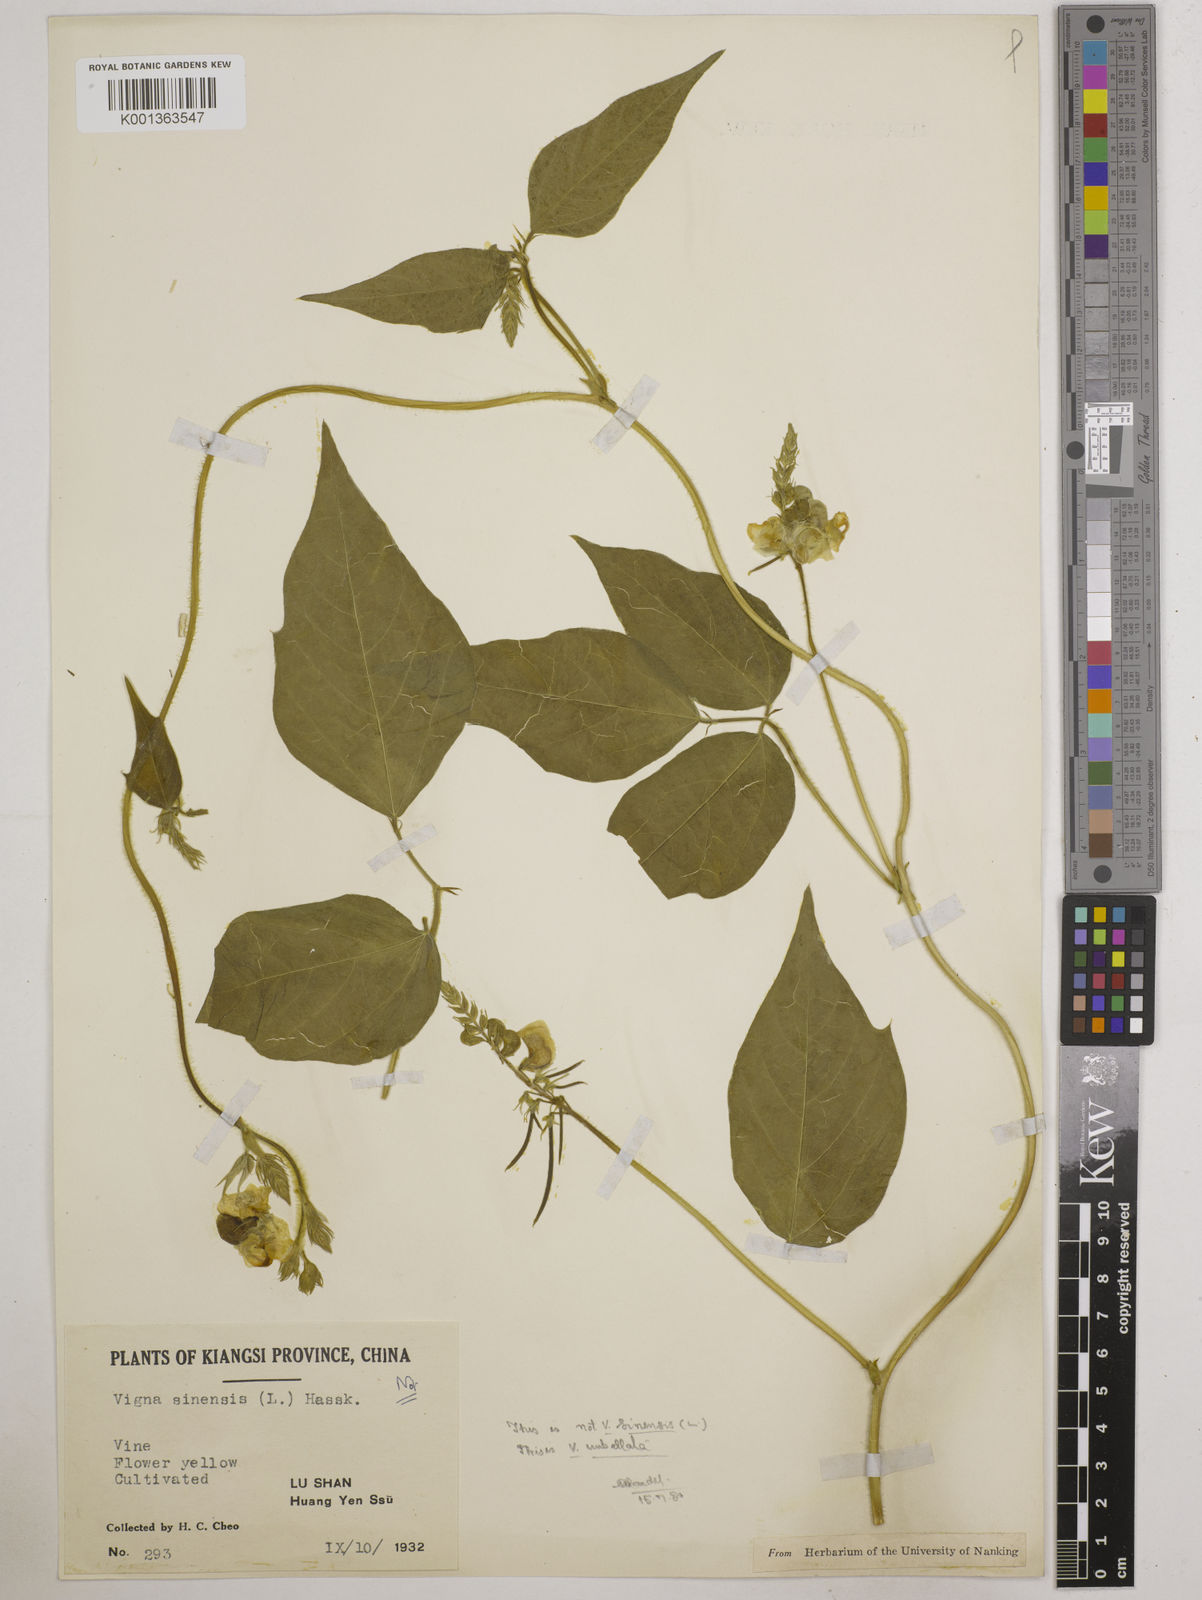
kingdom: Plantae
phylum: Tracheophyta
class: Magnoliopsida
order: Fabales
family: Fabaceae
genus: Vigna
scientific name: Vigna umbellata
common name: Oriental-bean
